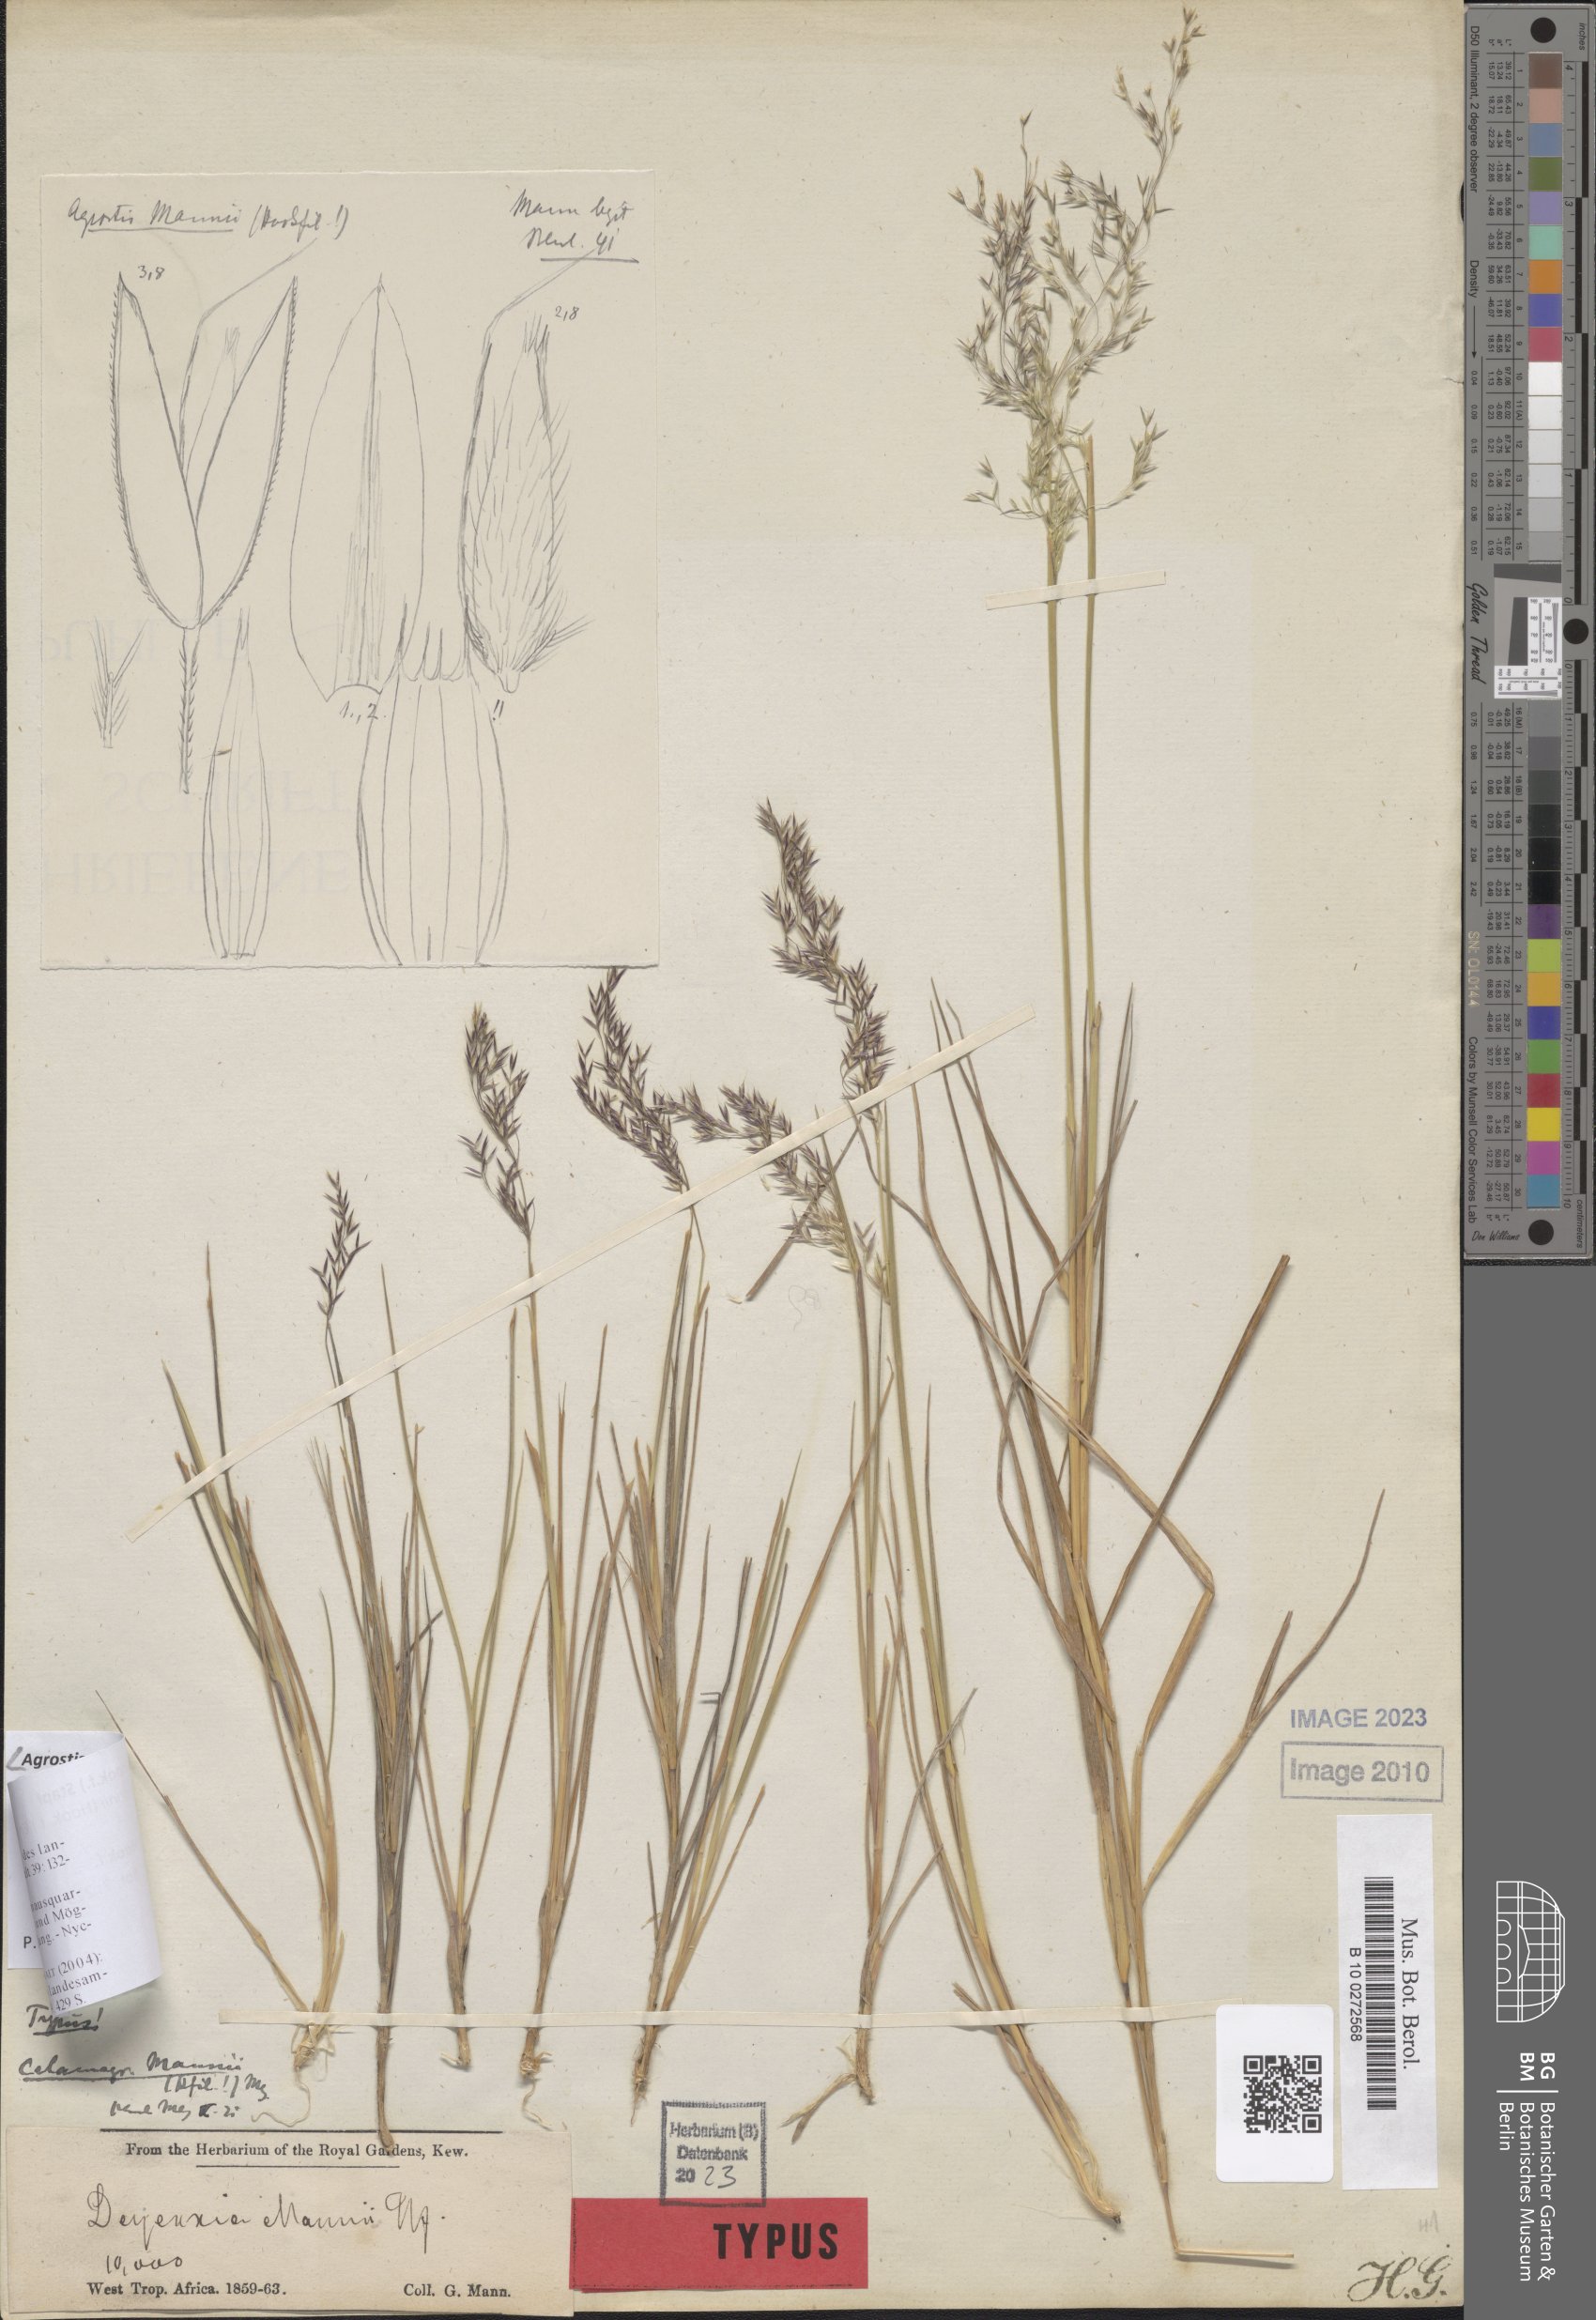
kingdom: Plantae
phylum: Tracheophyta
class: Liliopsida
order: Poales
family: Poaceae
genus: Agrostis
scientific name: Agrostis mannii
